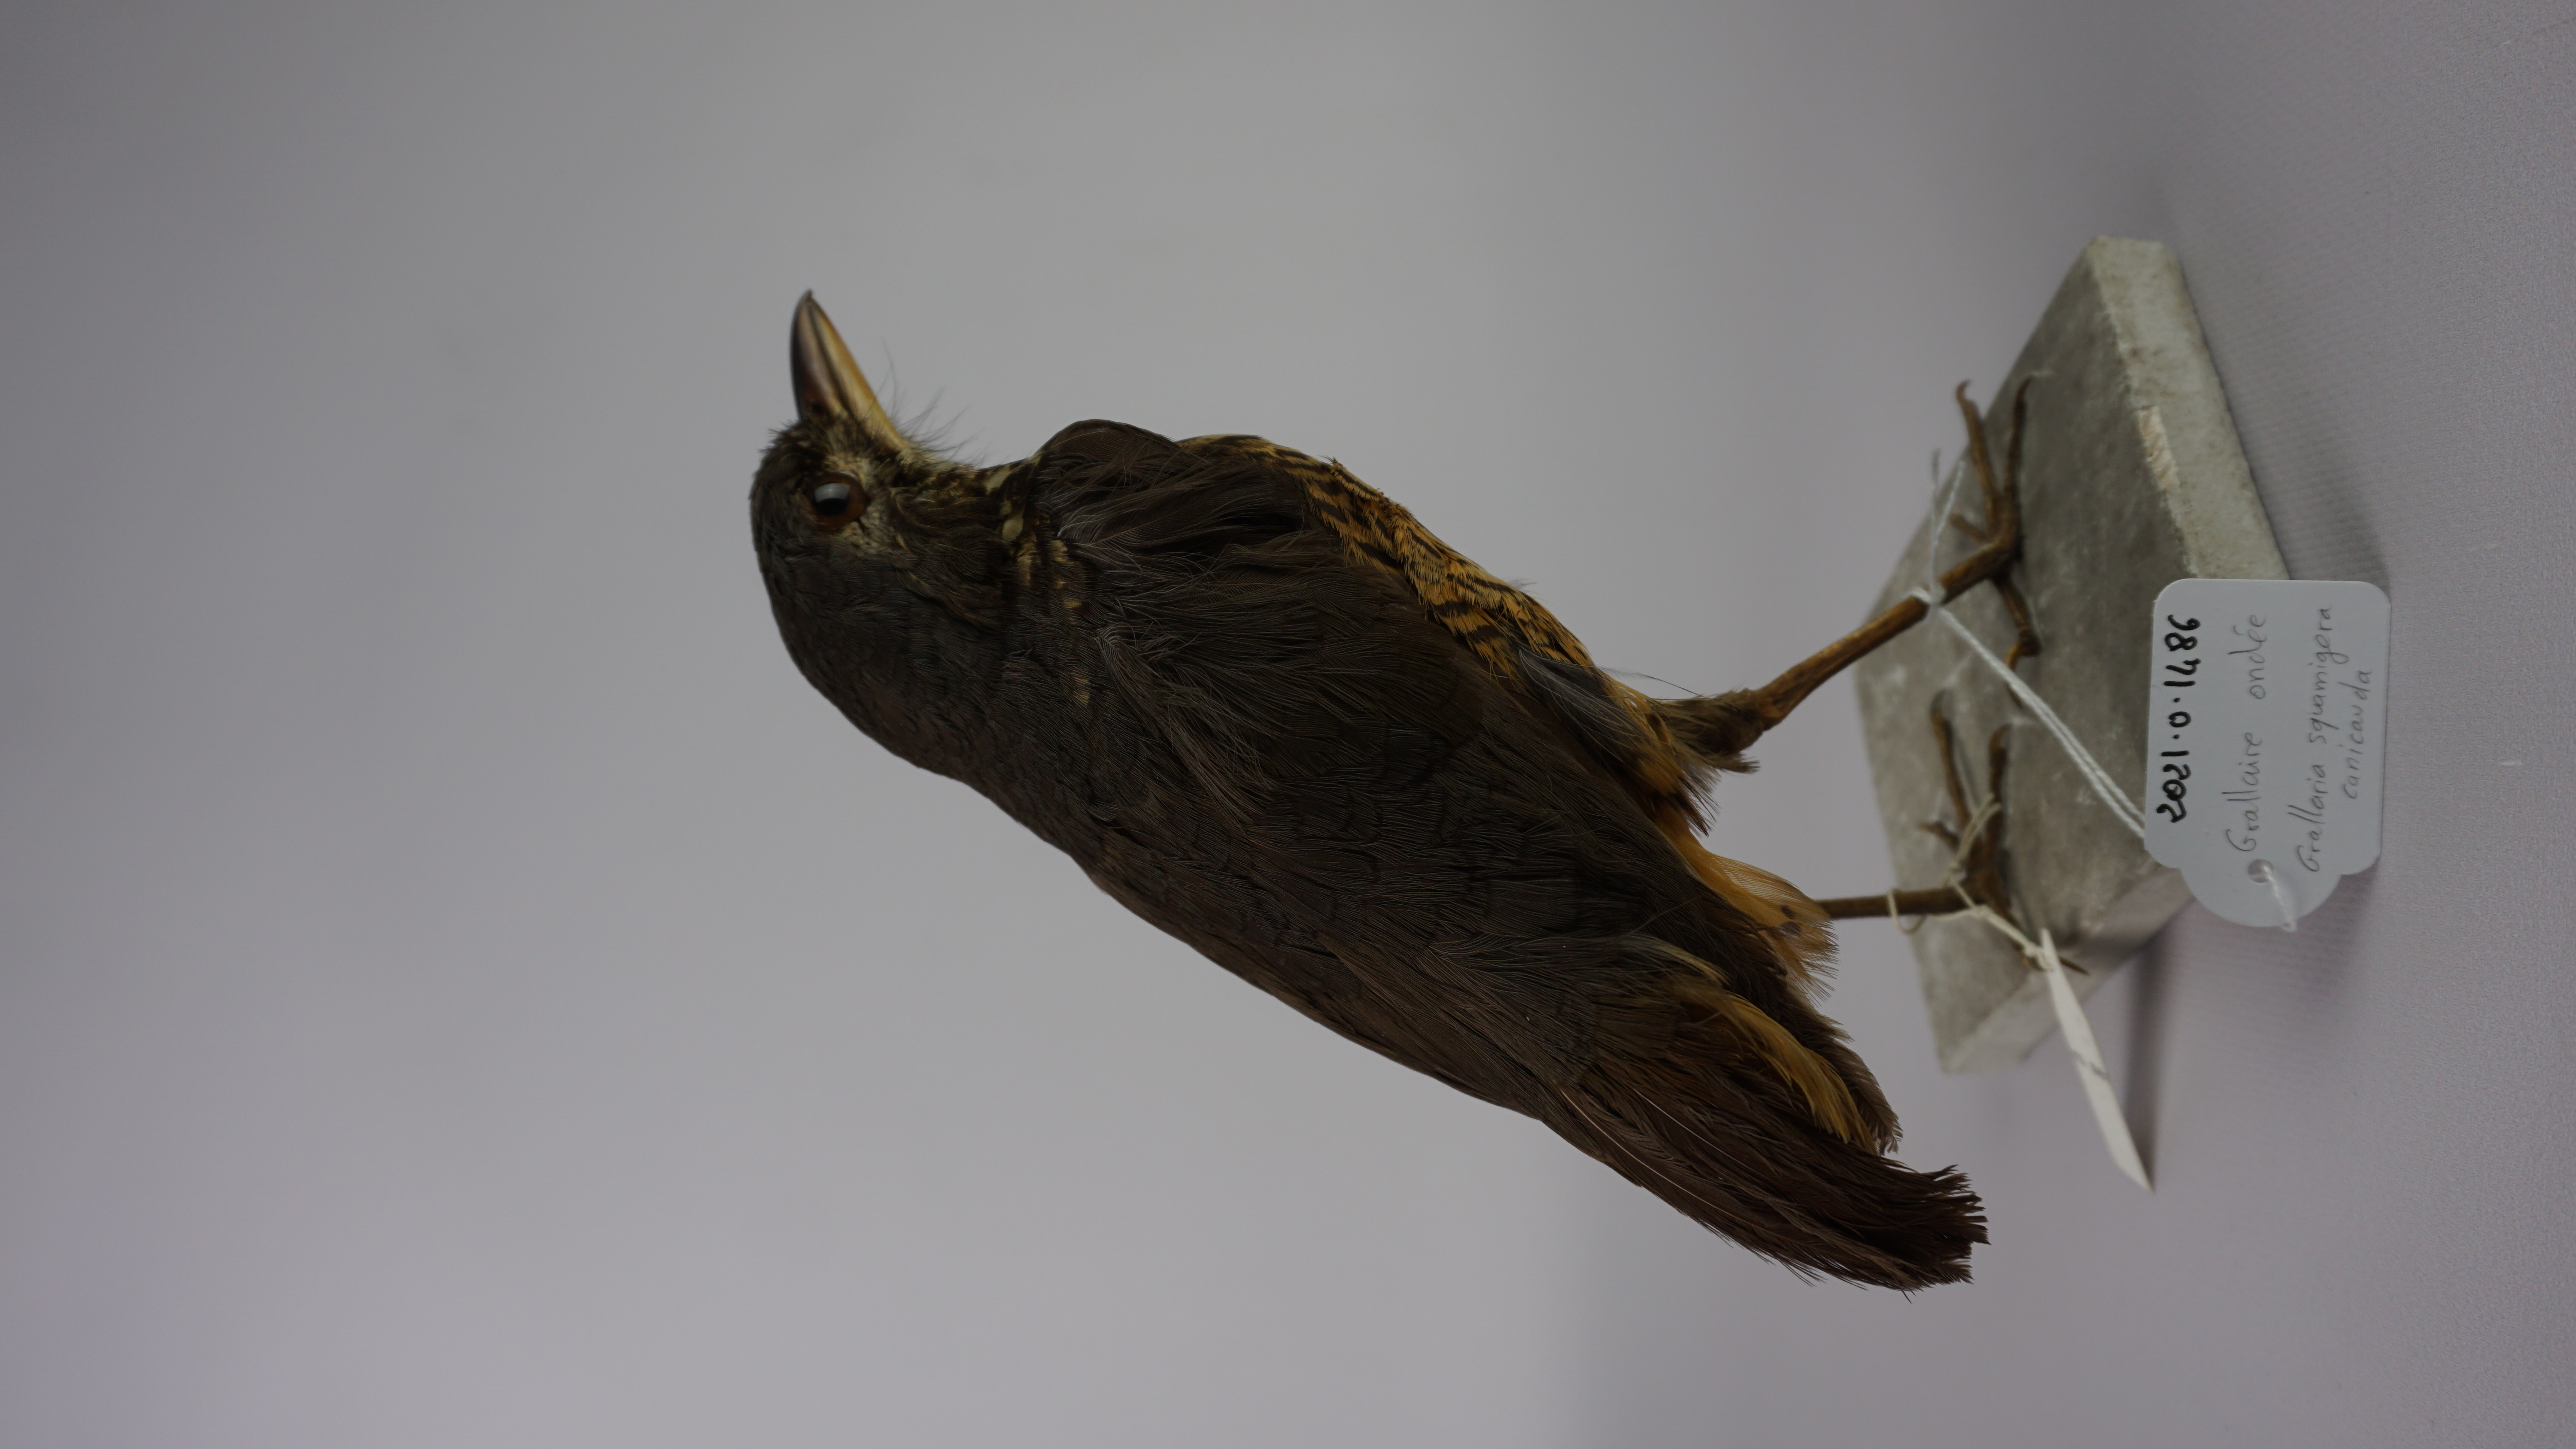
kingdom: Animalia
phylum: Chordata
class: Aves
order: Passeriformes
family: Grallariidae
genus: Grallaria
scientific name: Grallaria squamigera
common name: Undulated antpitta
